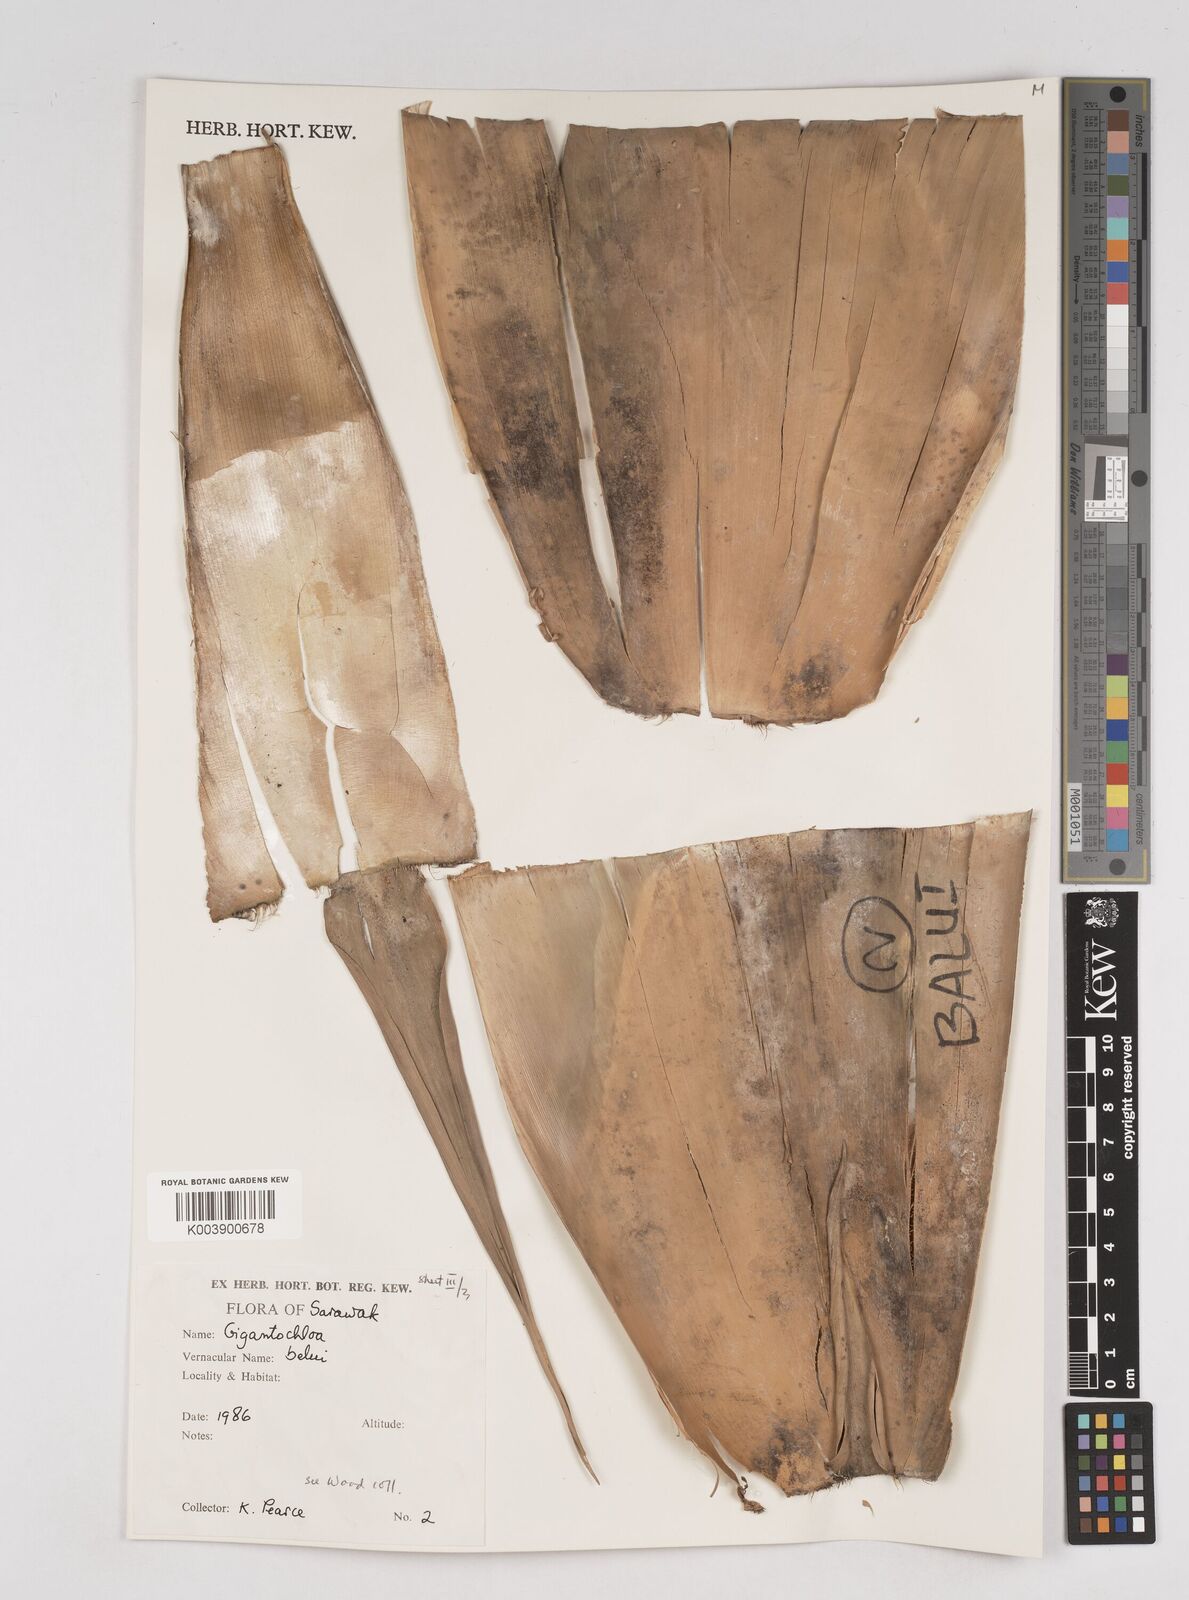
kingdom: Plantae
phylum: Tracheophyta
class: Liliopsida
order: Poales
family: Poaceae
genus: Gigantochloa
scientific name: Gigantochloa
